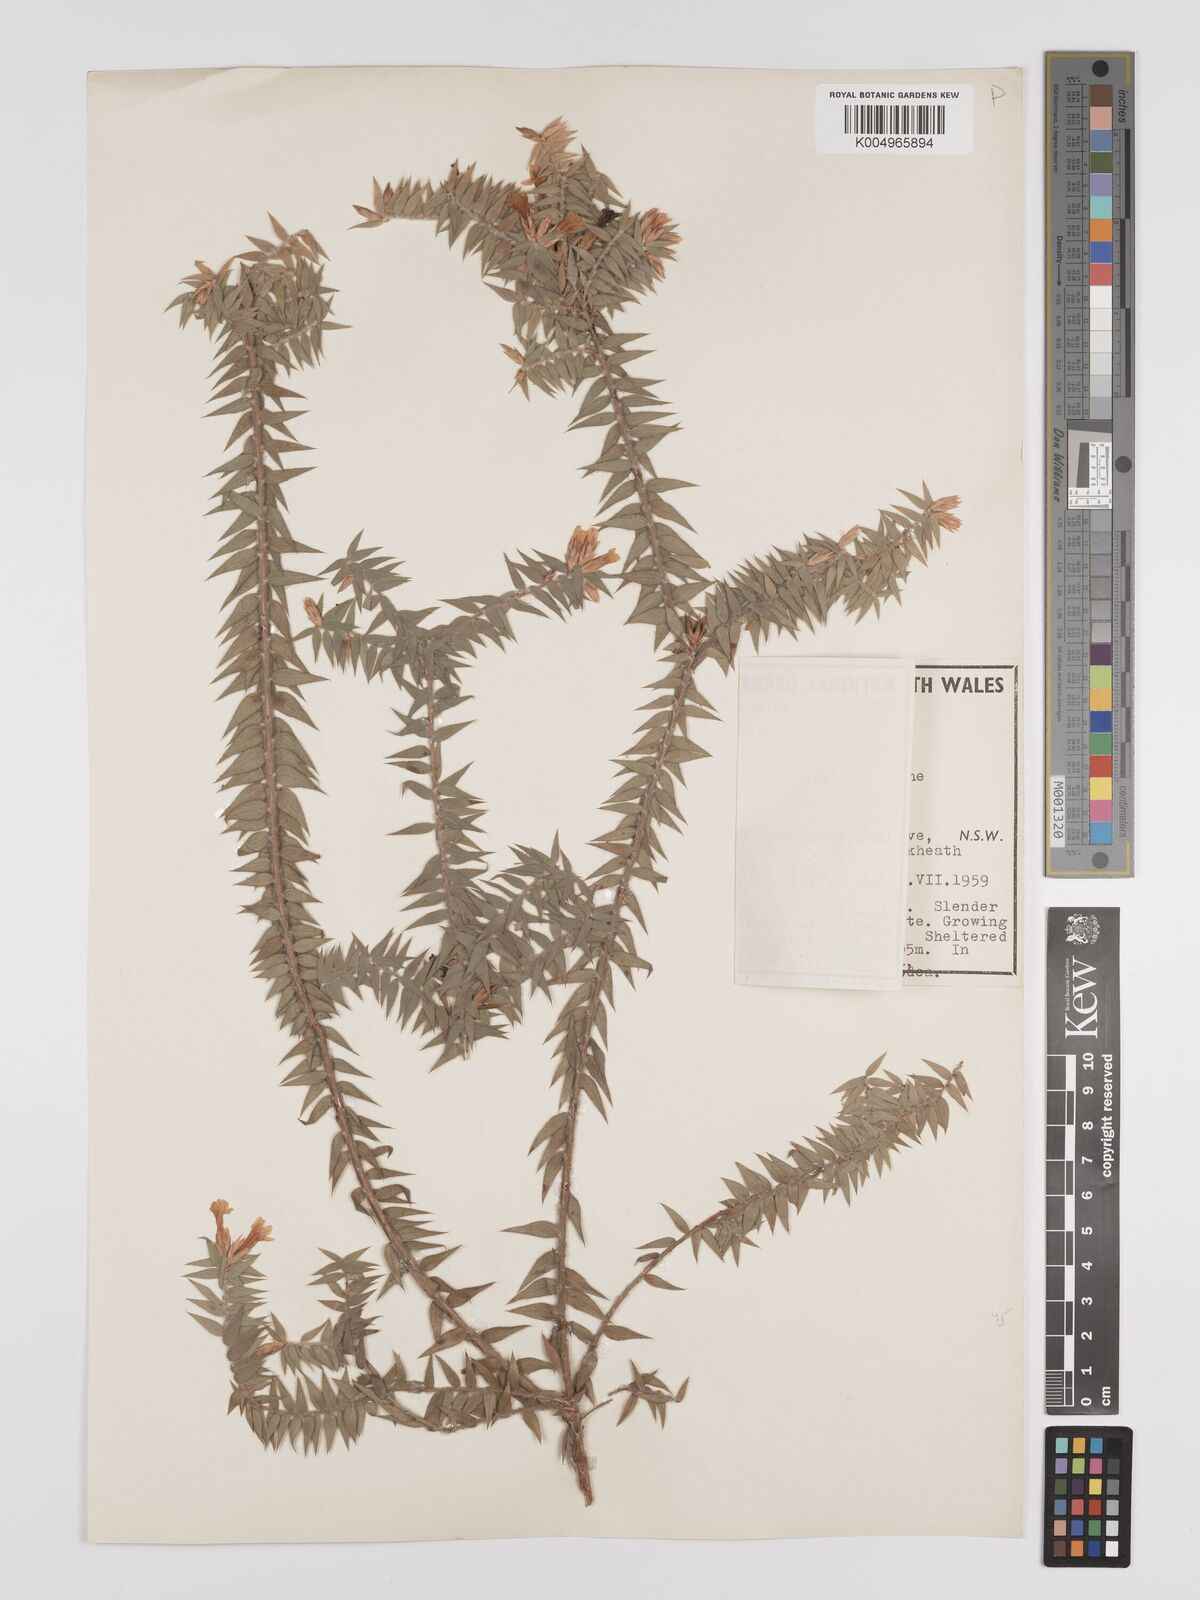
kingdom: Plantae
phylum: Tracheophyta
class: Magnoliopsida
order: Ericales
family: Ericaceae
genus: Epacris
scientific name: Epacris hamiltonii
